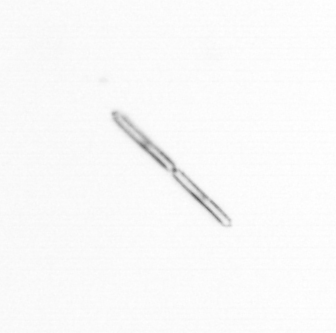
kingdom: Chromista
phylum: Ochrophyta
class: Bacillariophyceae
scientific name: Bacillariophyceae
